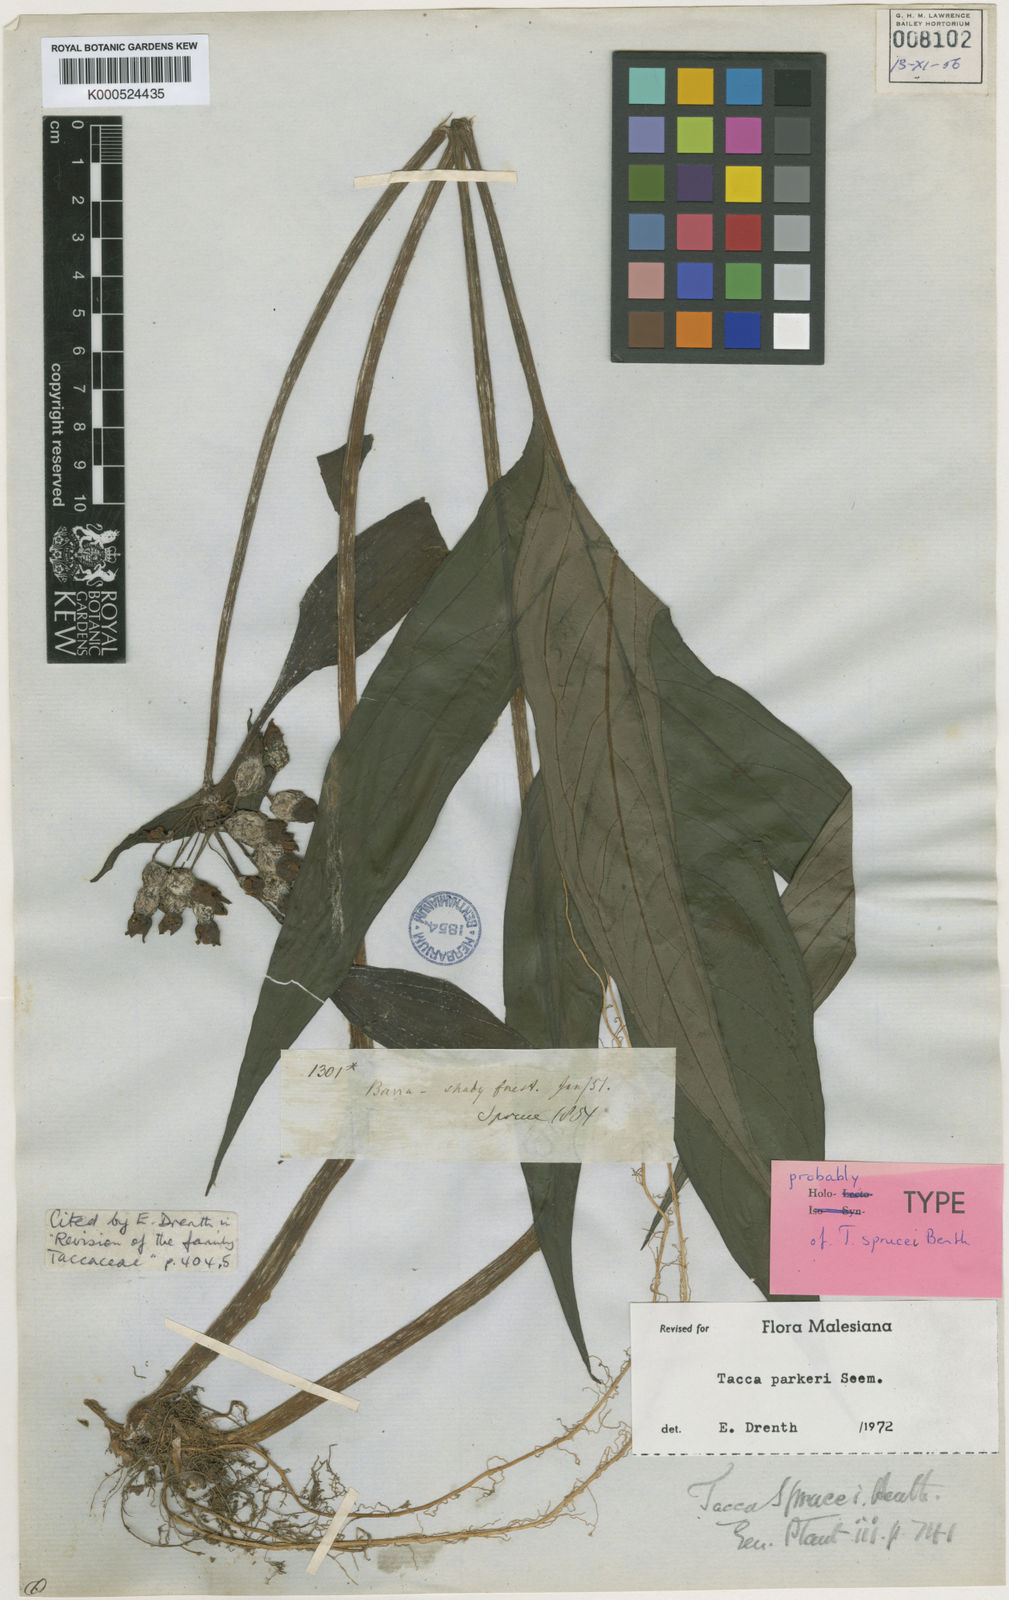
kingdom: Plantae
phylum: Tracheophyta
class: Liliopsida
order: Dioscoreales
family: Dioscoreaceae
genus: Tacca
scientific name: Tacca parkeri
